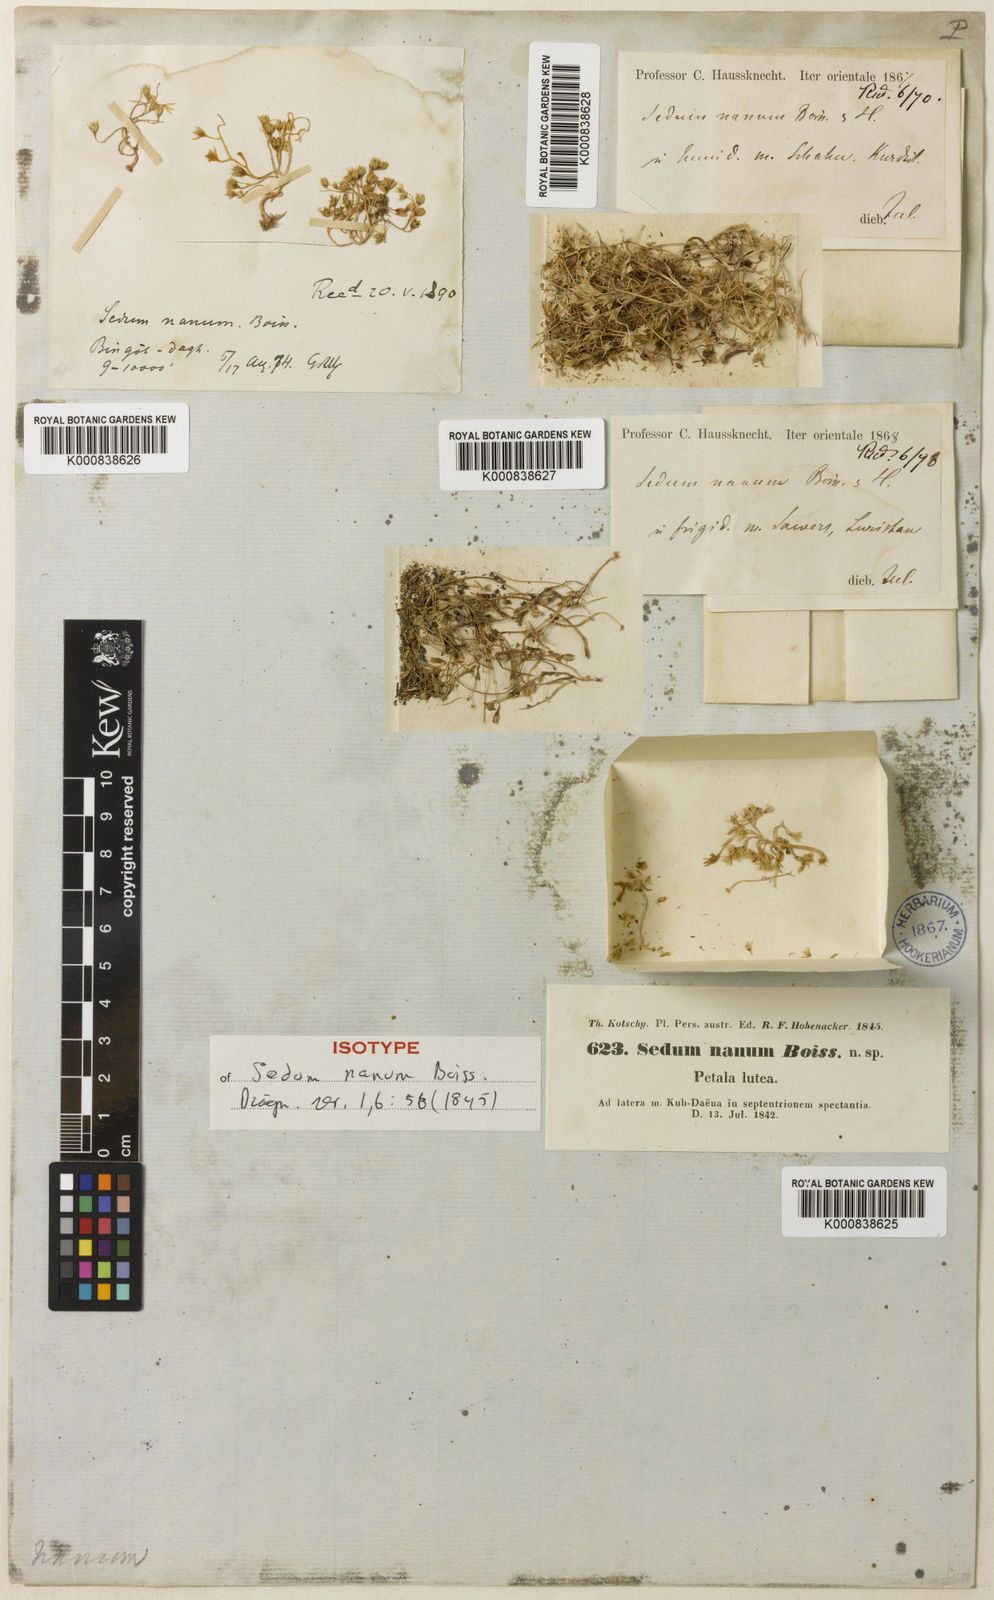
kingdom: Plantae
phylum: Tracheophyta
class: Magnoliopsida
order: Saxifragales
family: Crassulaceae
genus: Sedum
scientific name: Sedum nanum
